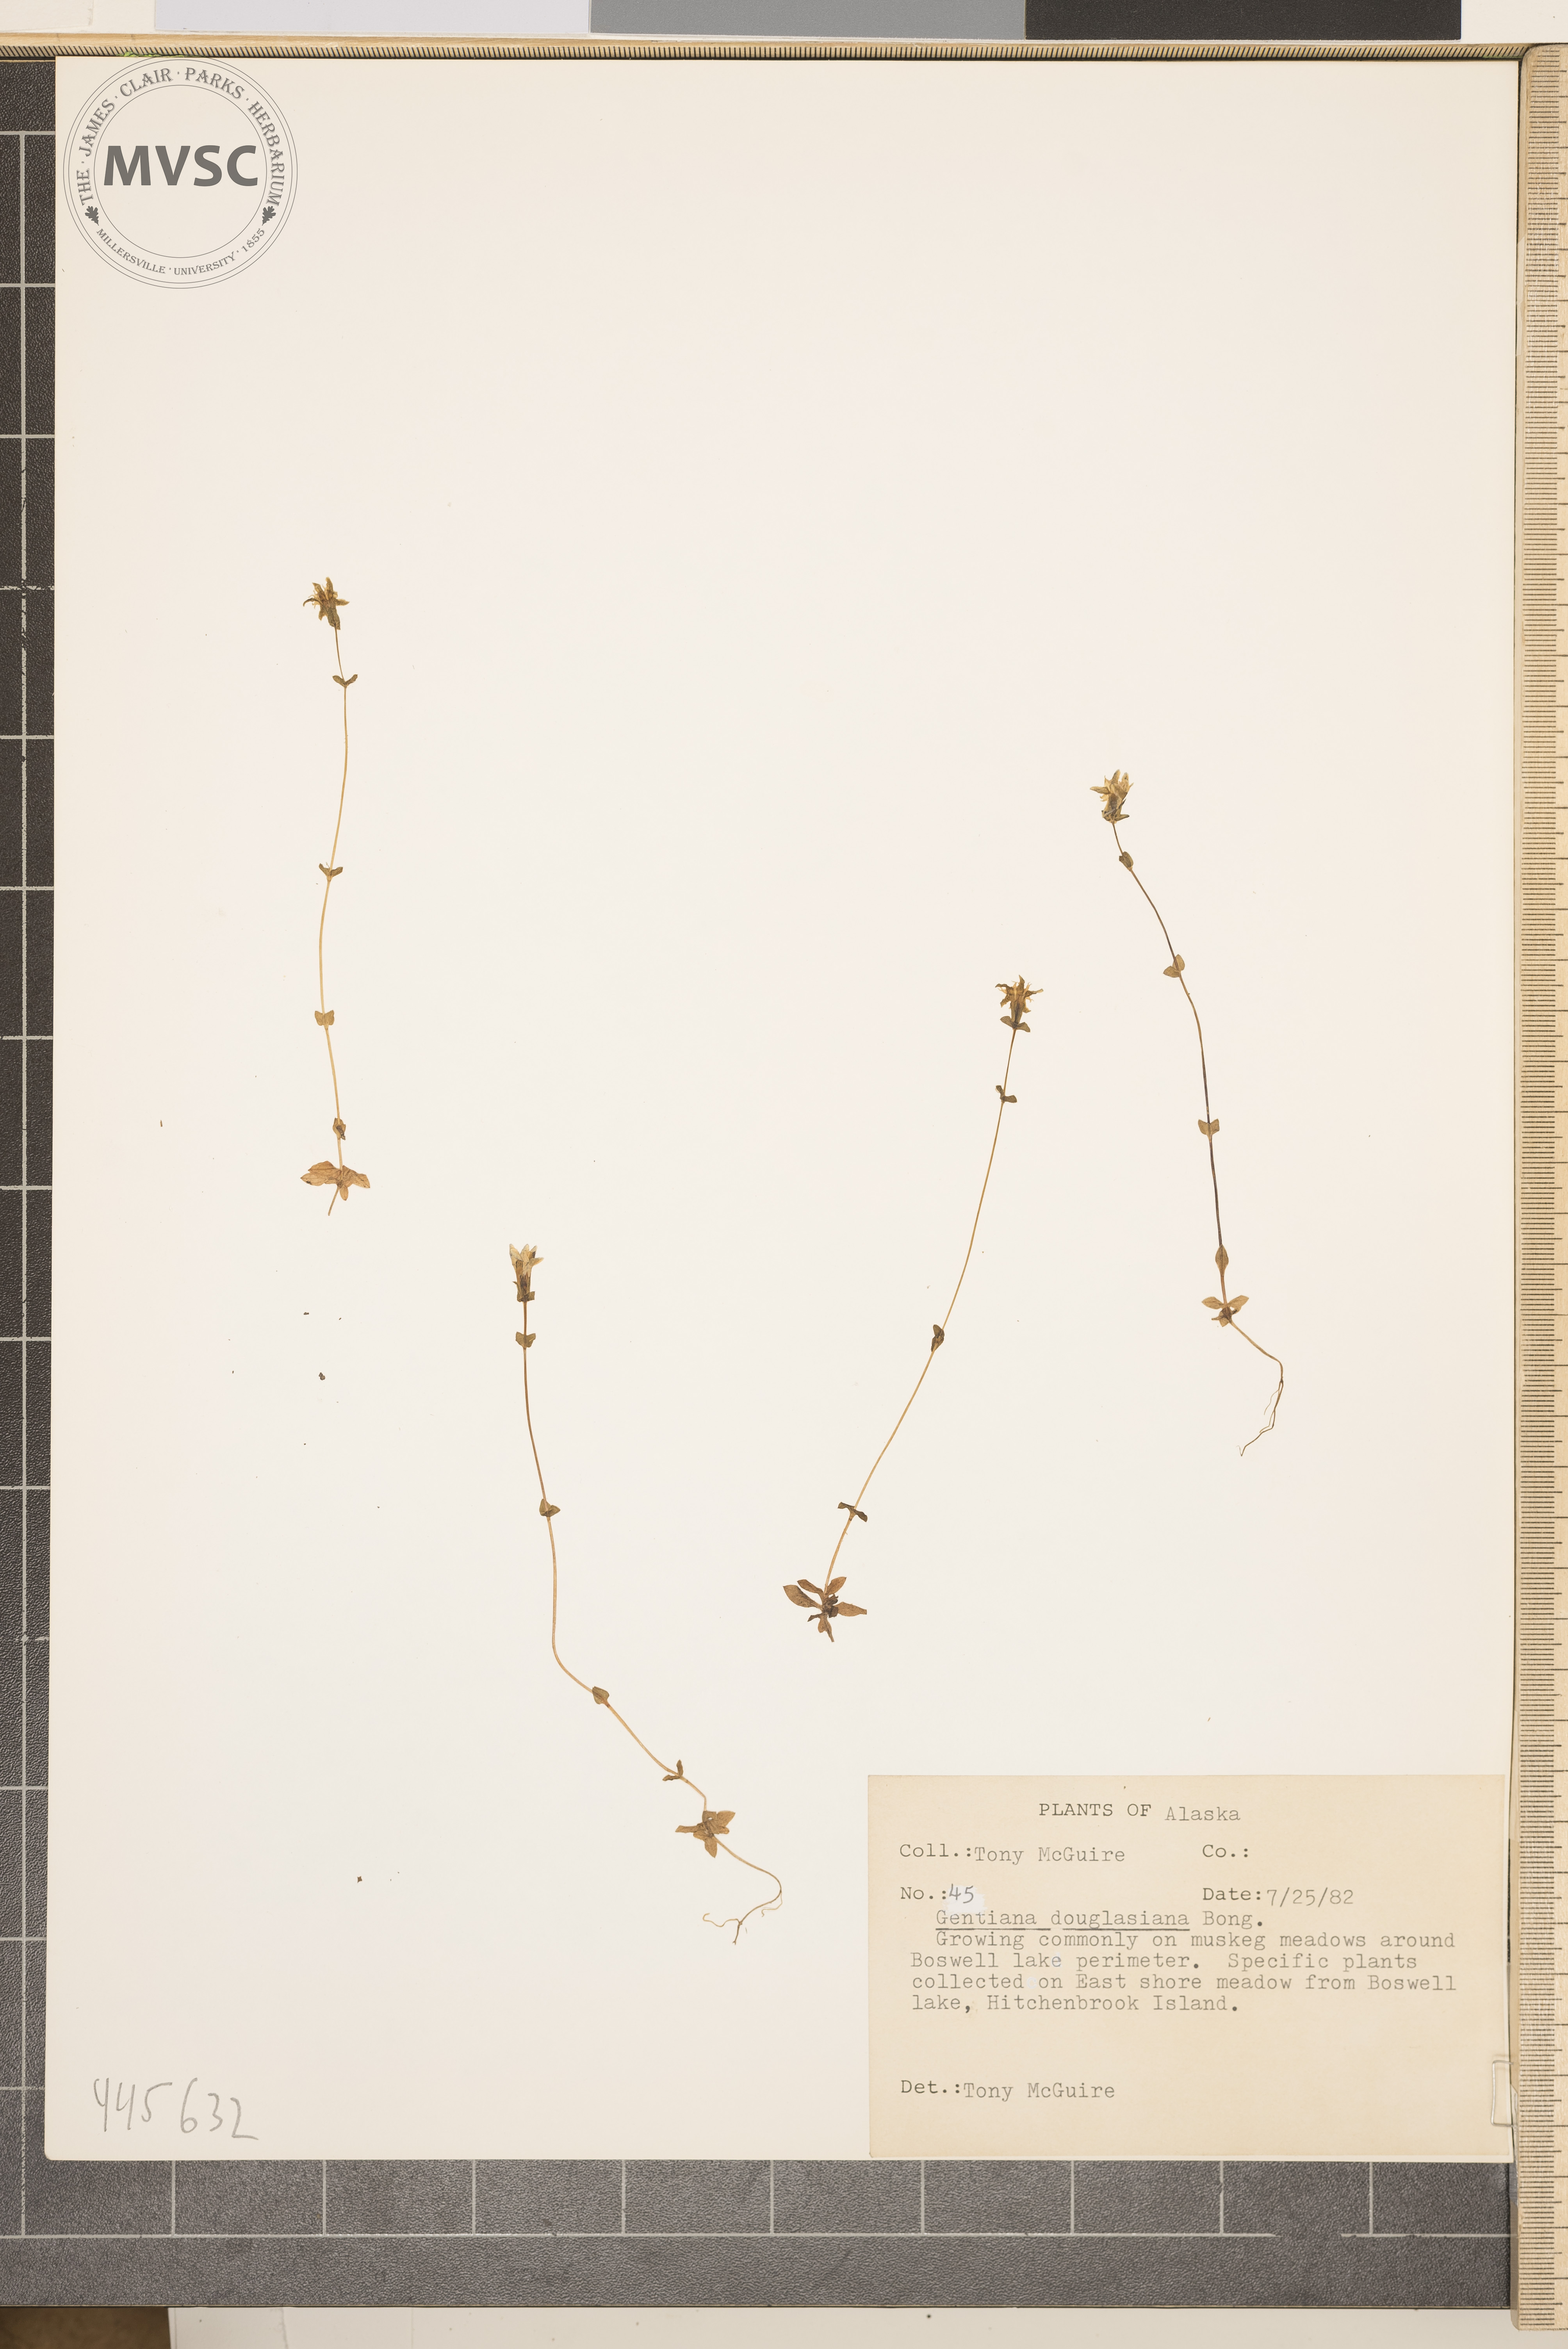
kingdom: Plantae
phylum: Tracheophyta
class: Magnoliopsida
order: Gentianales
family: Gentianaceae
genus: Gentiana
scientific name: Gentiana douglasiana
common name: Swamp gentian
